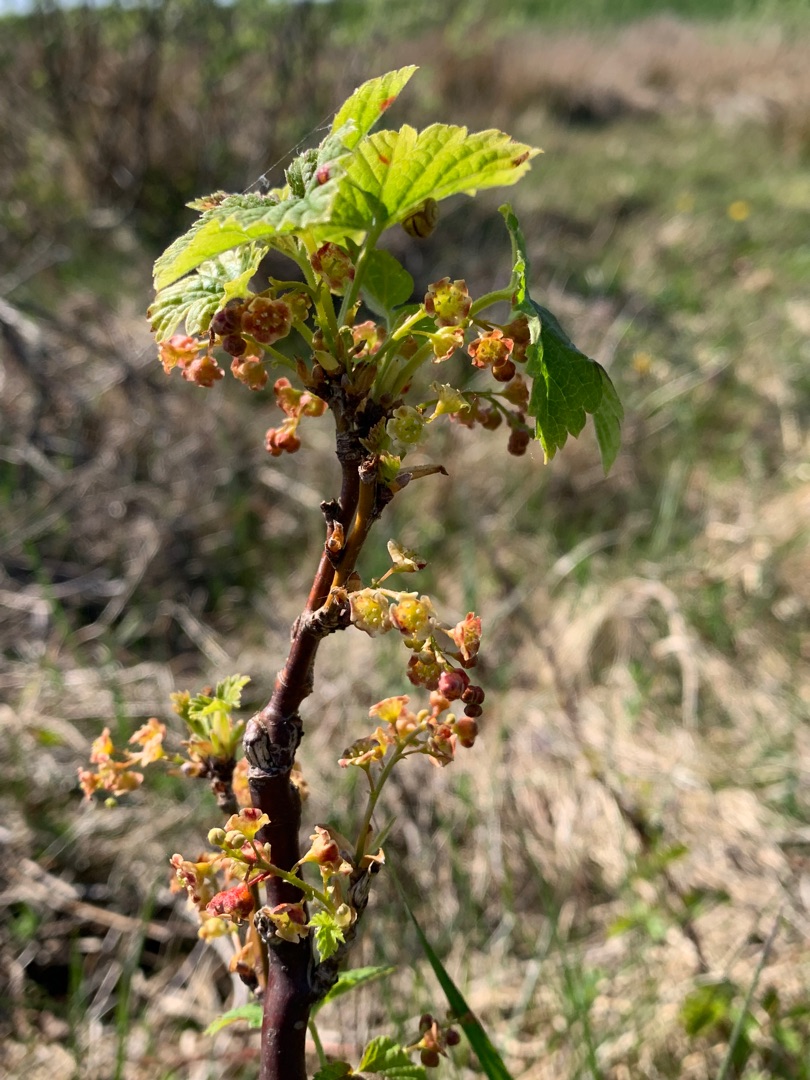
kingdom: Plantae
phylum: Tracheophyta
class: Magnoliopsida
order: Saxifragales
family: Grossulariaceae
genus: Ribes
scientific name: Ribes
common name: Ribsslægten
